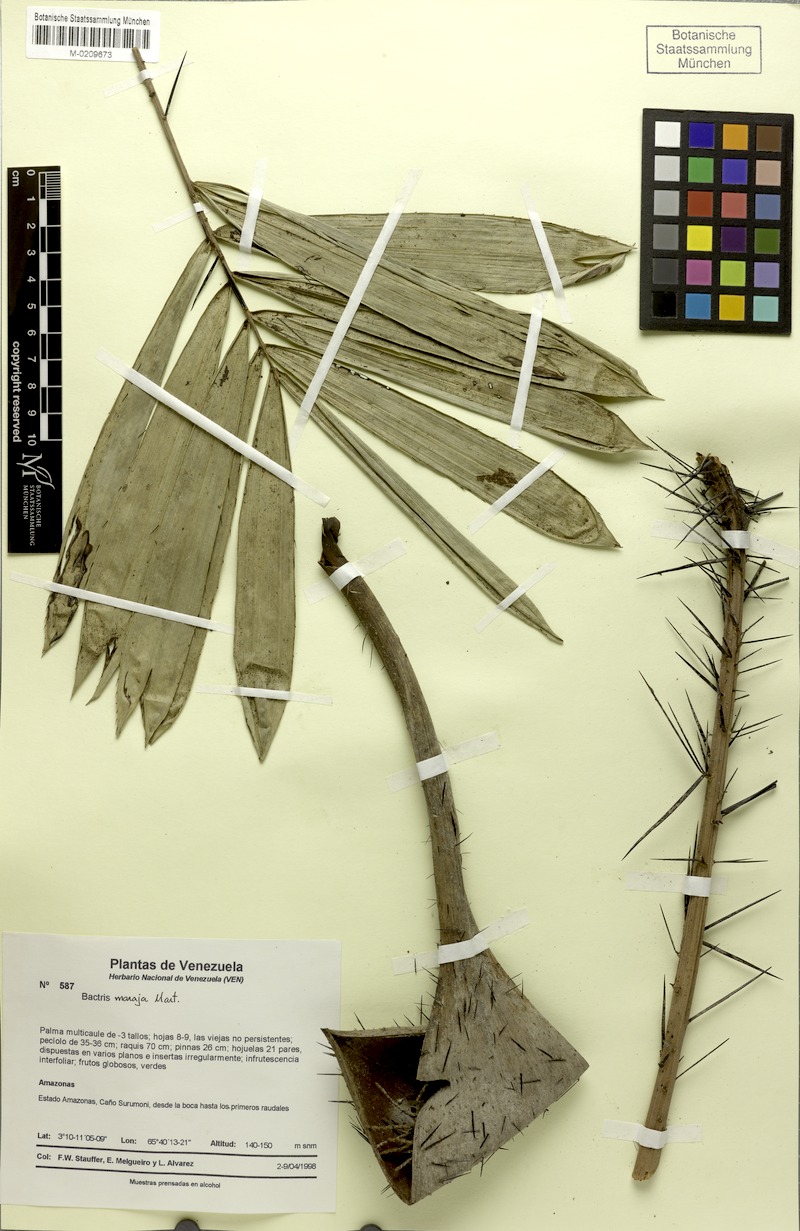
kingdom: Plantae
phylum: Tracheophyta
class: Liliopsida
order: Arecales
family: Arecaceae
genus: Bactris
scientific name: Bactris maraja
